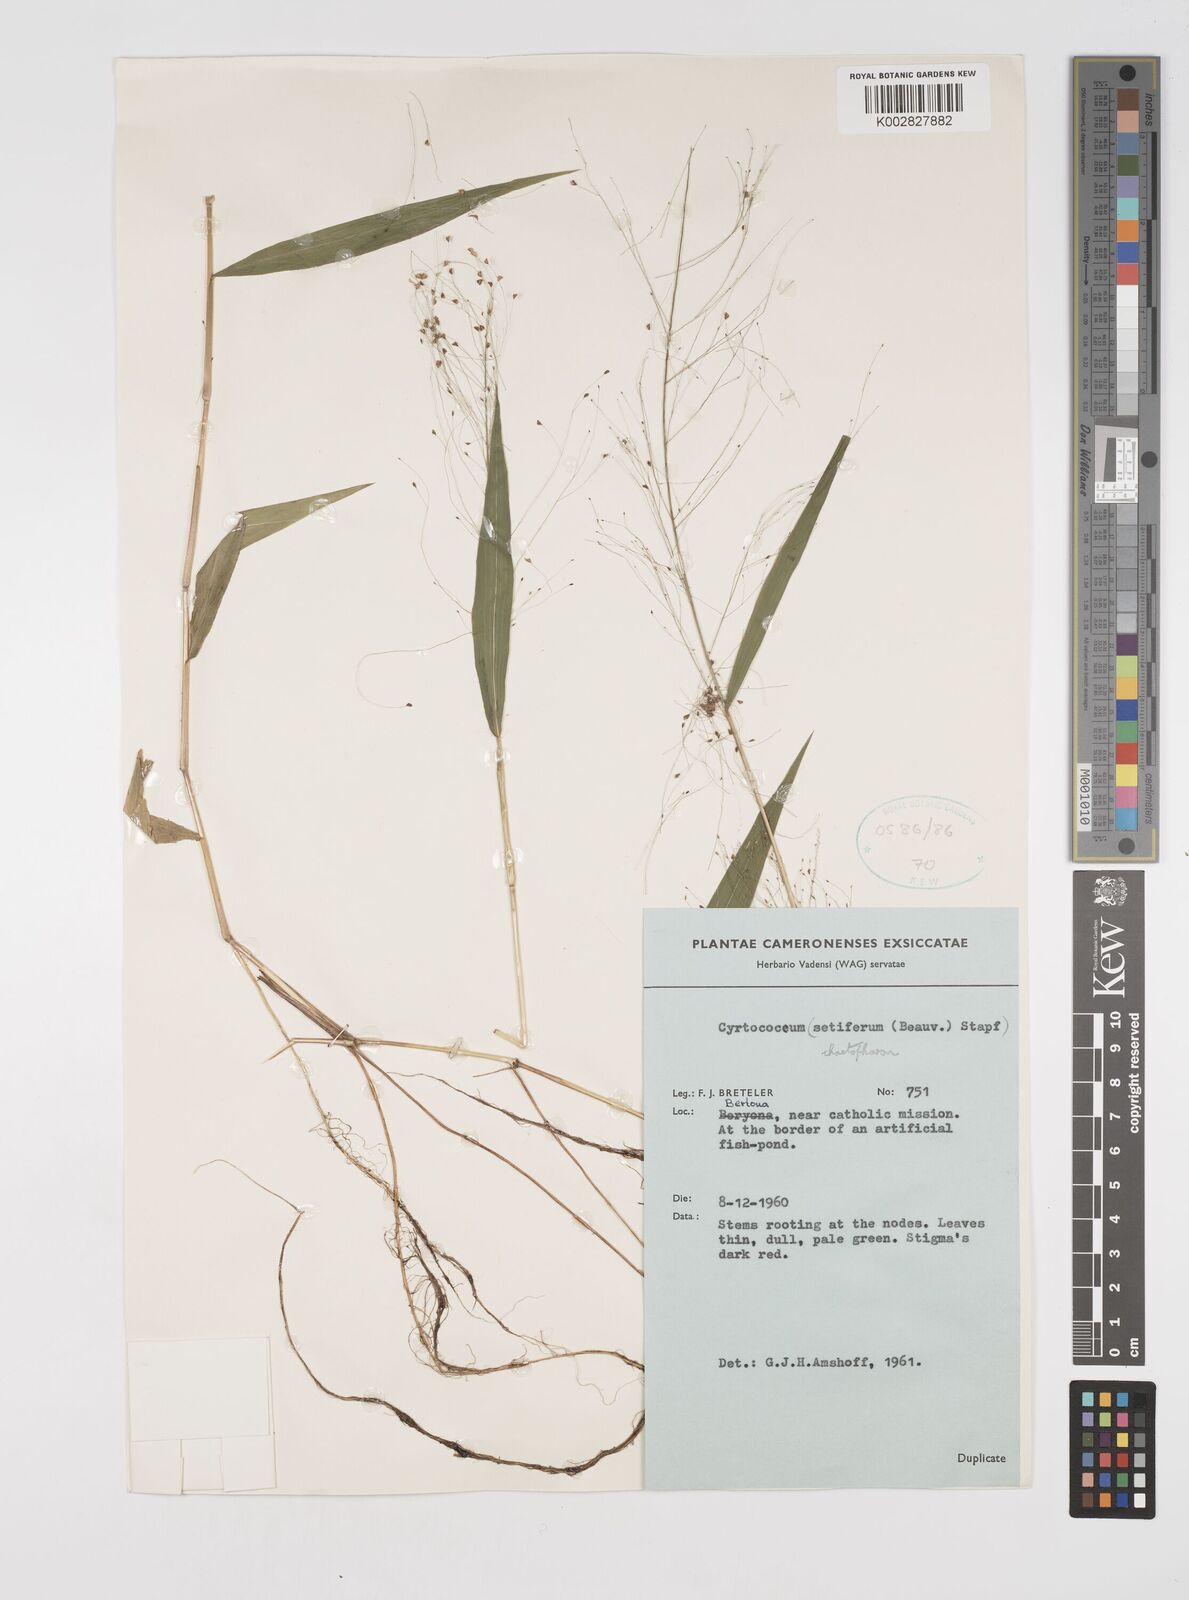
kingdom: Plantae
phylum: Tracheophyta
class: Liliopsida
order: Poales
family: Poaceae
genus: Cyrtococcum
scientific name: Cyrtococcum chaetophoron
